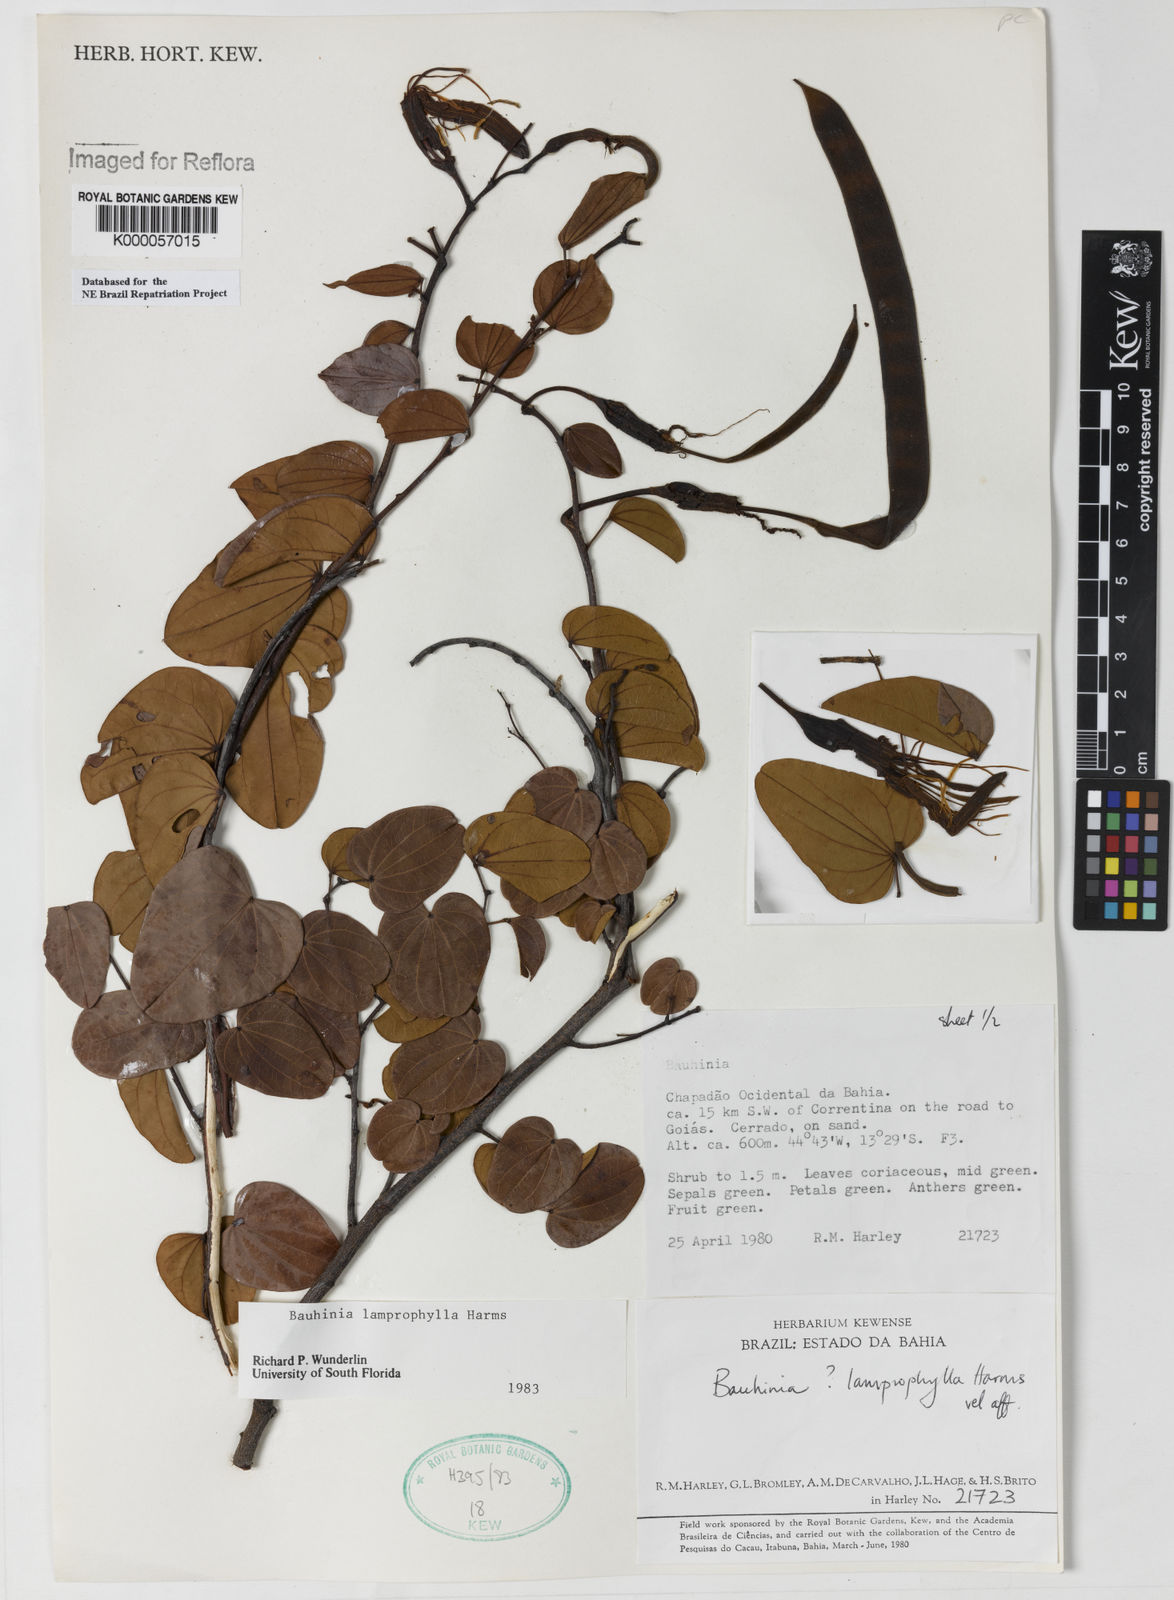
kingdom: Plantae
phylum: Tracheophyta
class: Magnoliopsida
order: Fabales
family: Fabaceae
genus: Bauhinia
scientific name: Bauhinia acuruana
